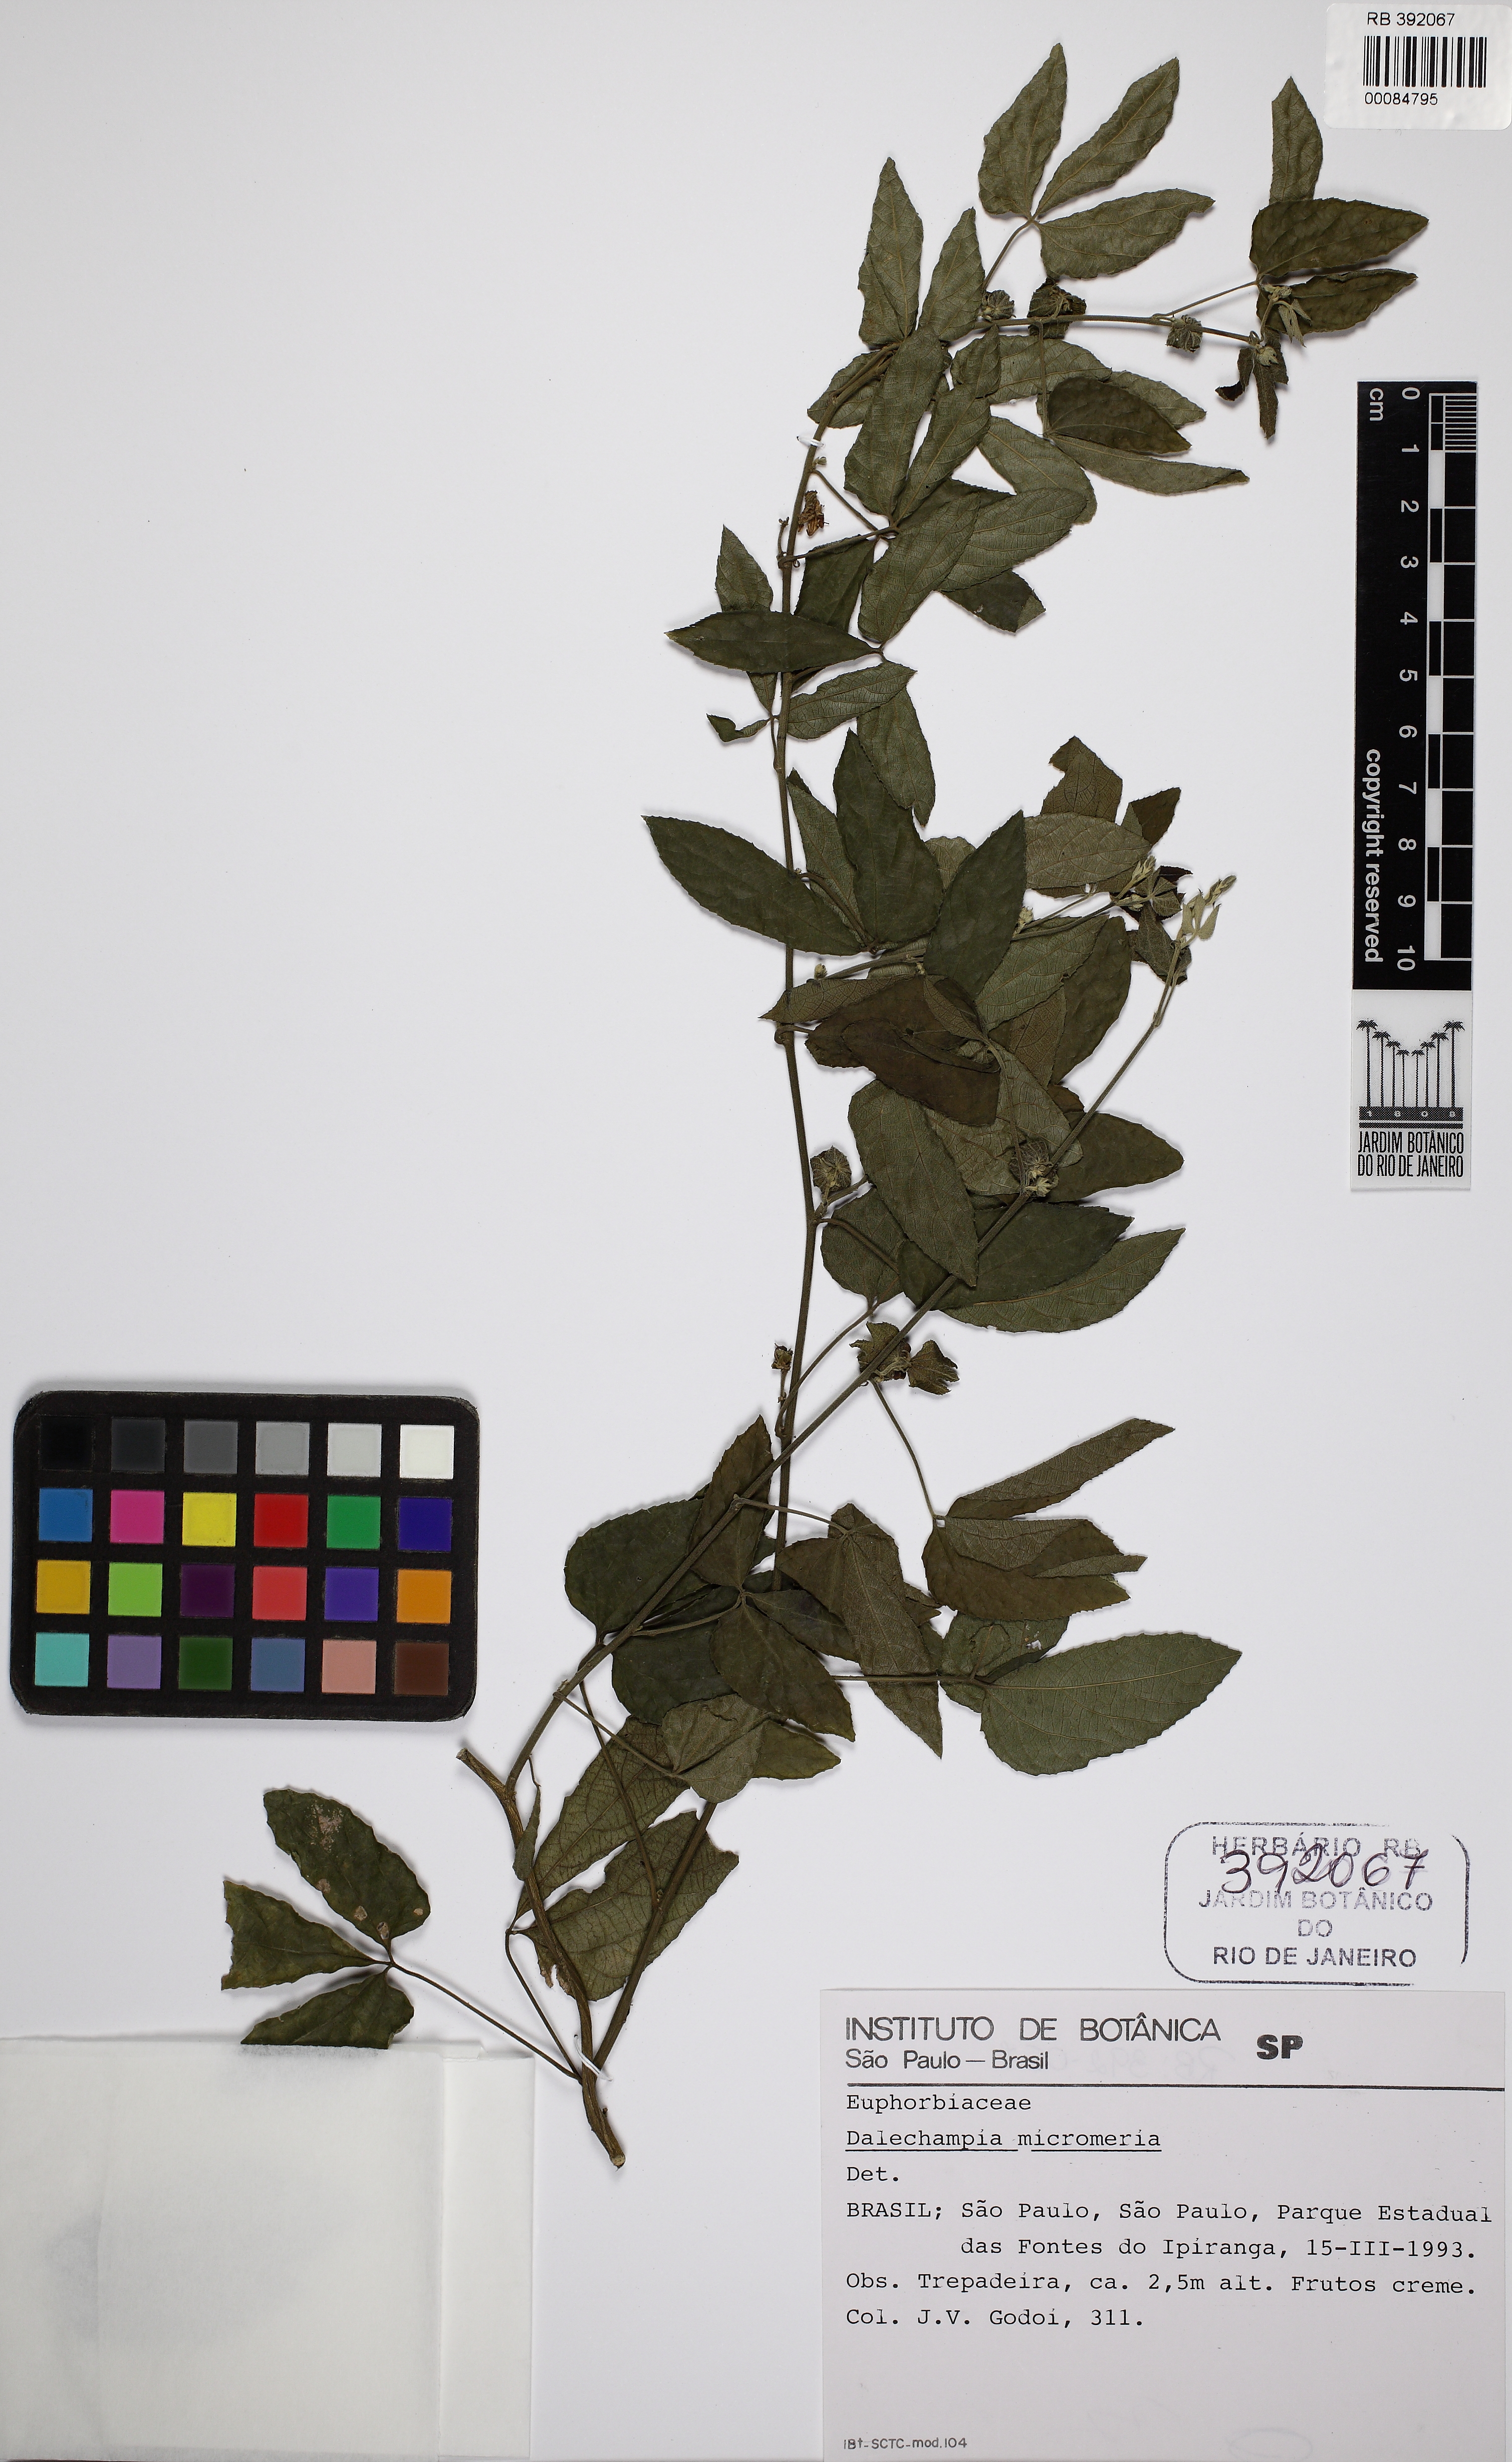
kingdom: Plantae
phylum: Tracheophyta
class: Magnoliopsida
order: Malpighiales
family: Euphorbiaceae
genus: Dalechampia
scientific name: Dalechampia meridionalis
